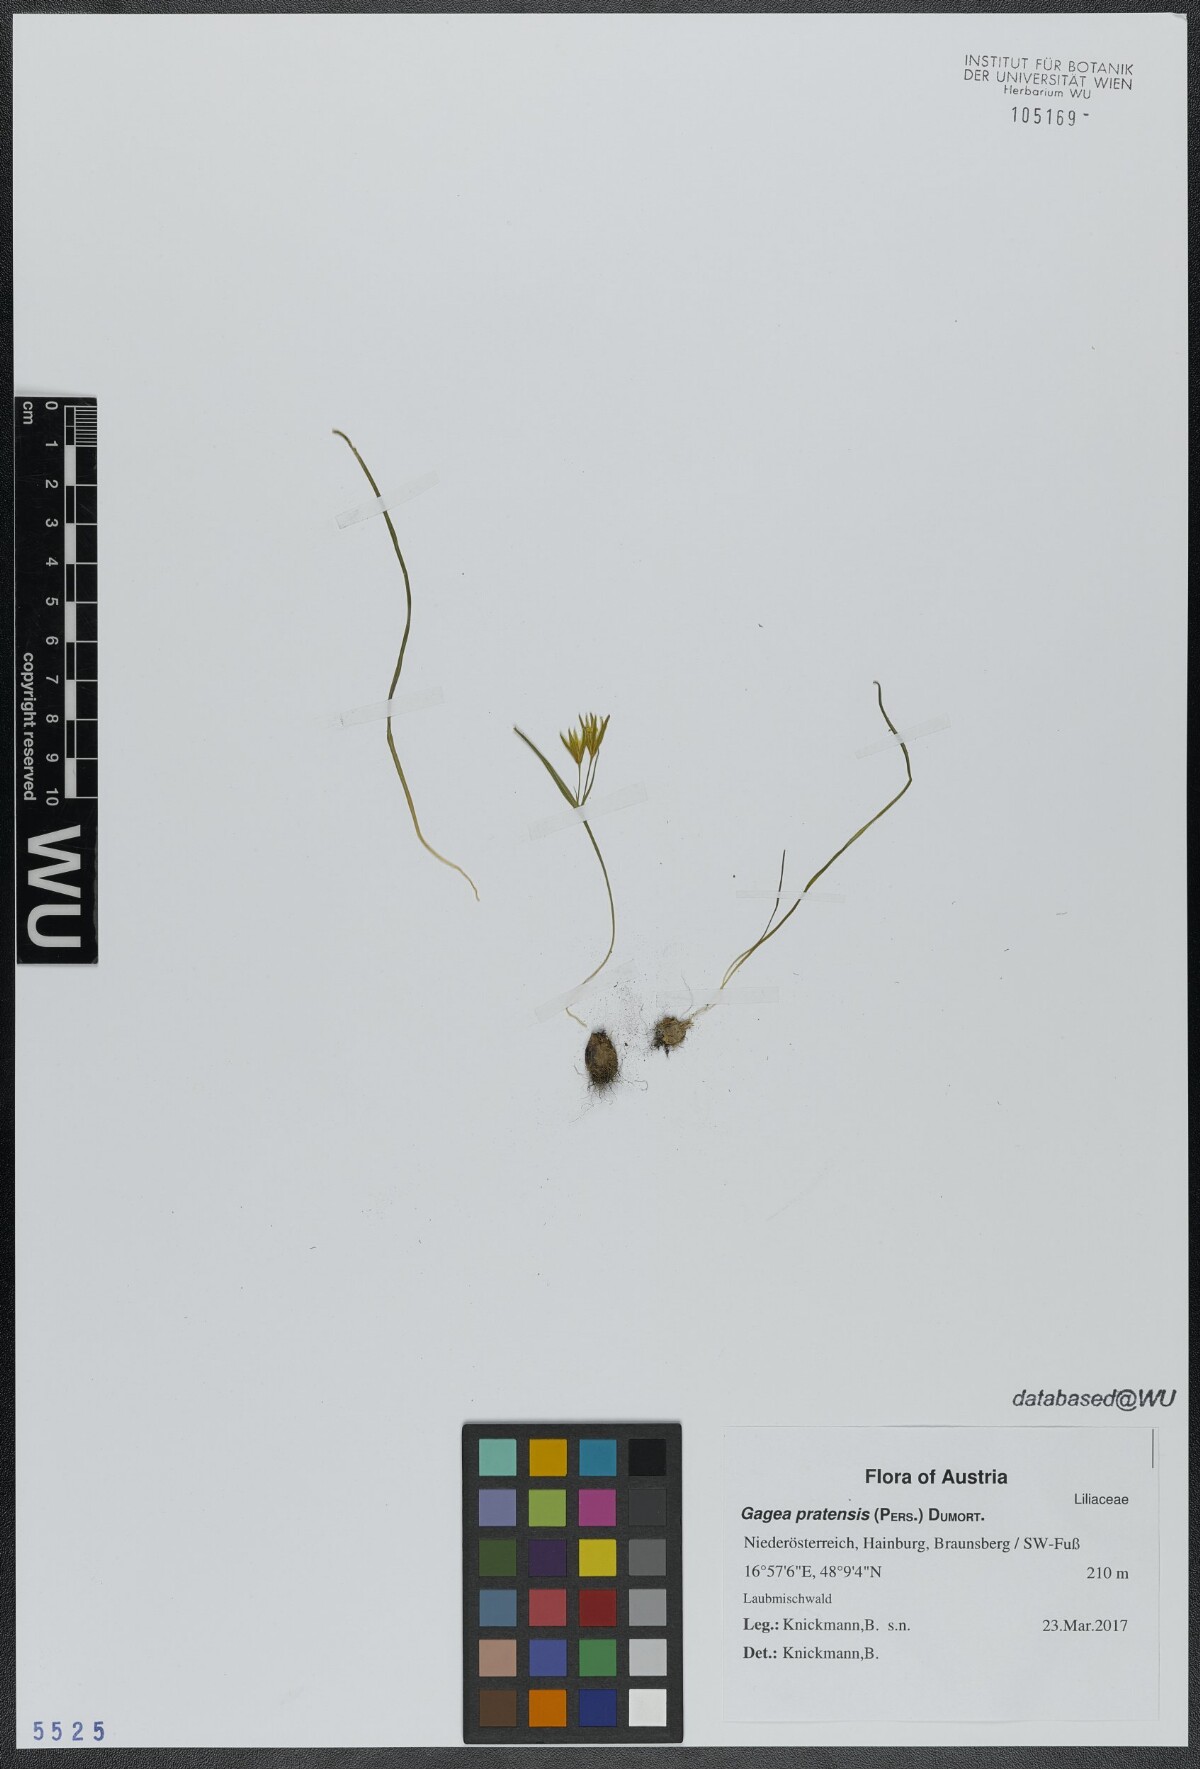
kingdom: Plantae
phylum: Tracheophyta
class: Liliopsida
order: Liliales
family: Liliaceae
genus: Gagea
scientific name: Gagea pratensis
